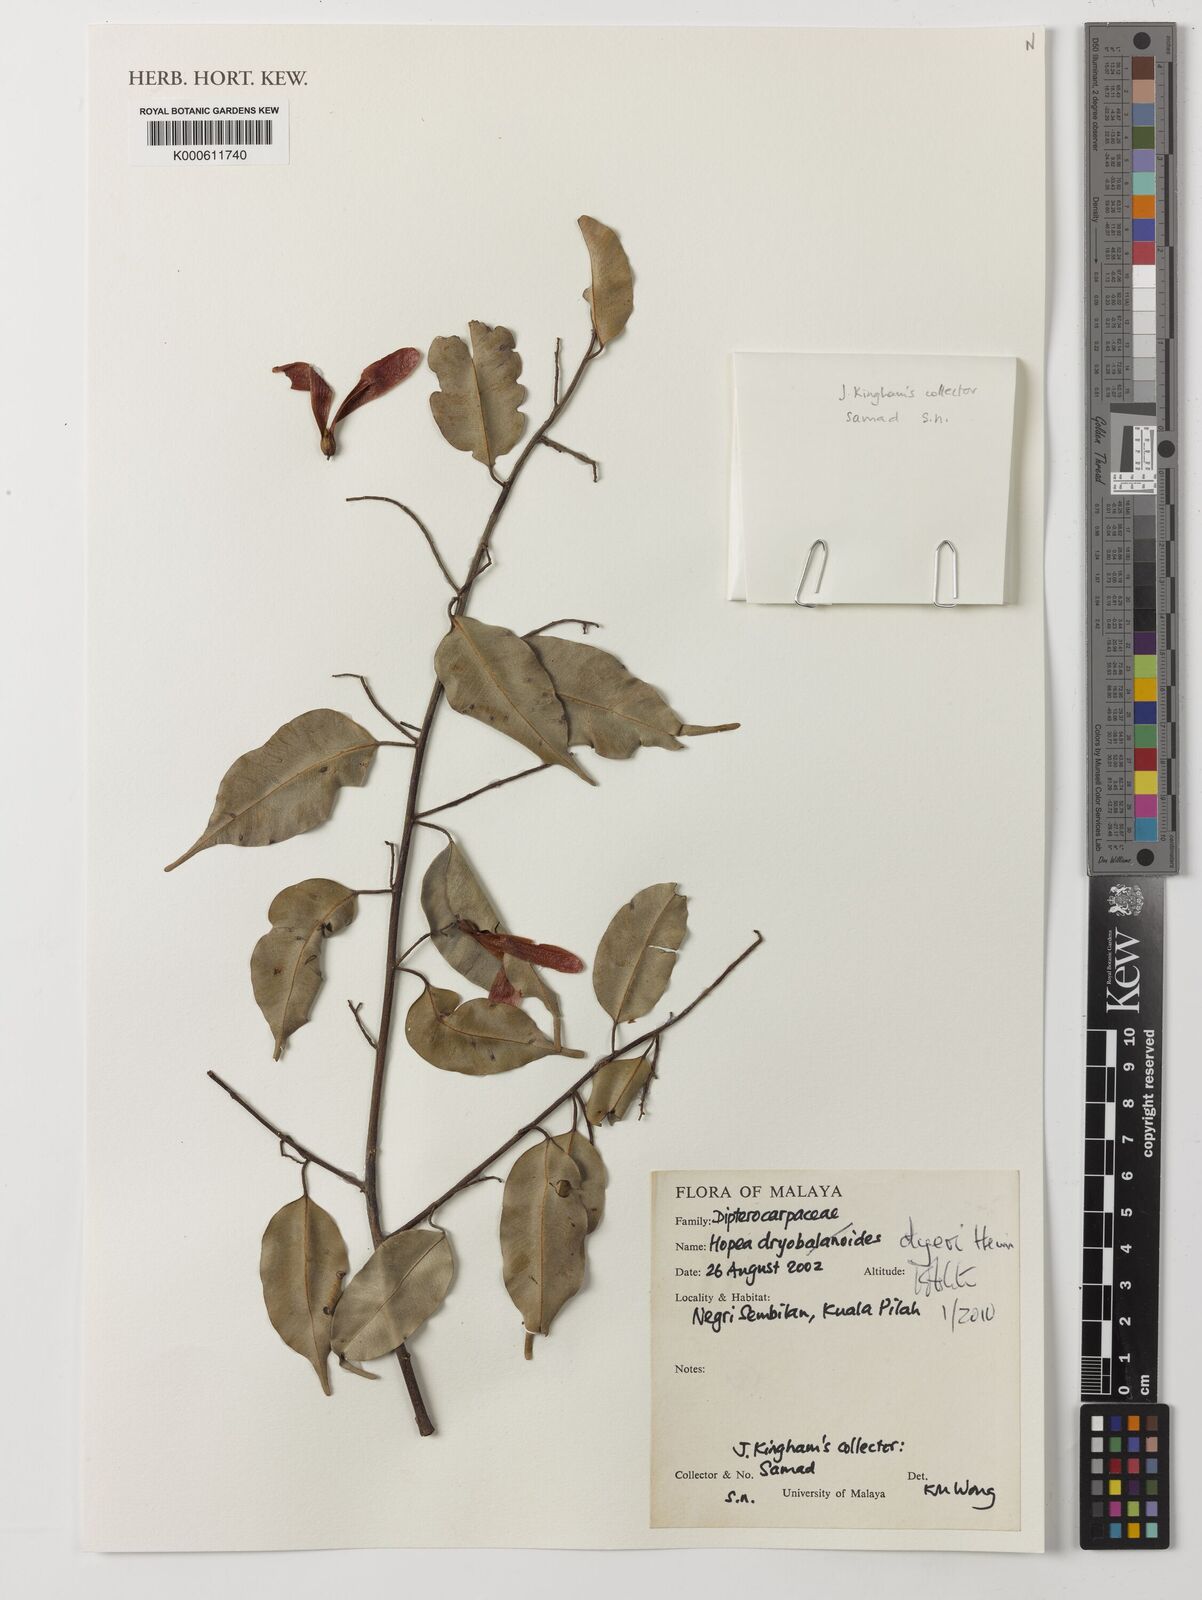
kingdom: Plantae
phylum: Tracheophyta
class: Magnoliopsida
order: Malvales
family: Dipterocarpaceae
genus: Hopea
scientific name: Hopea dyeri
